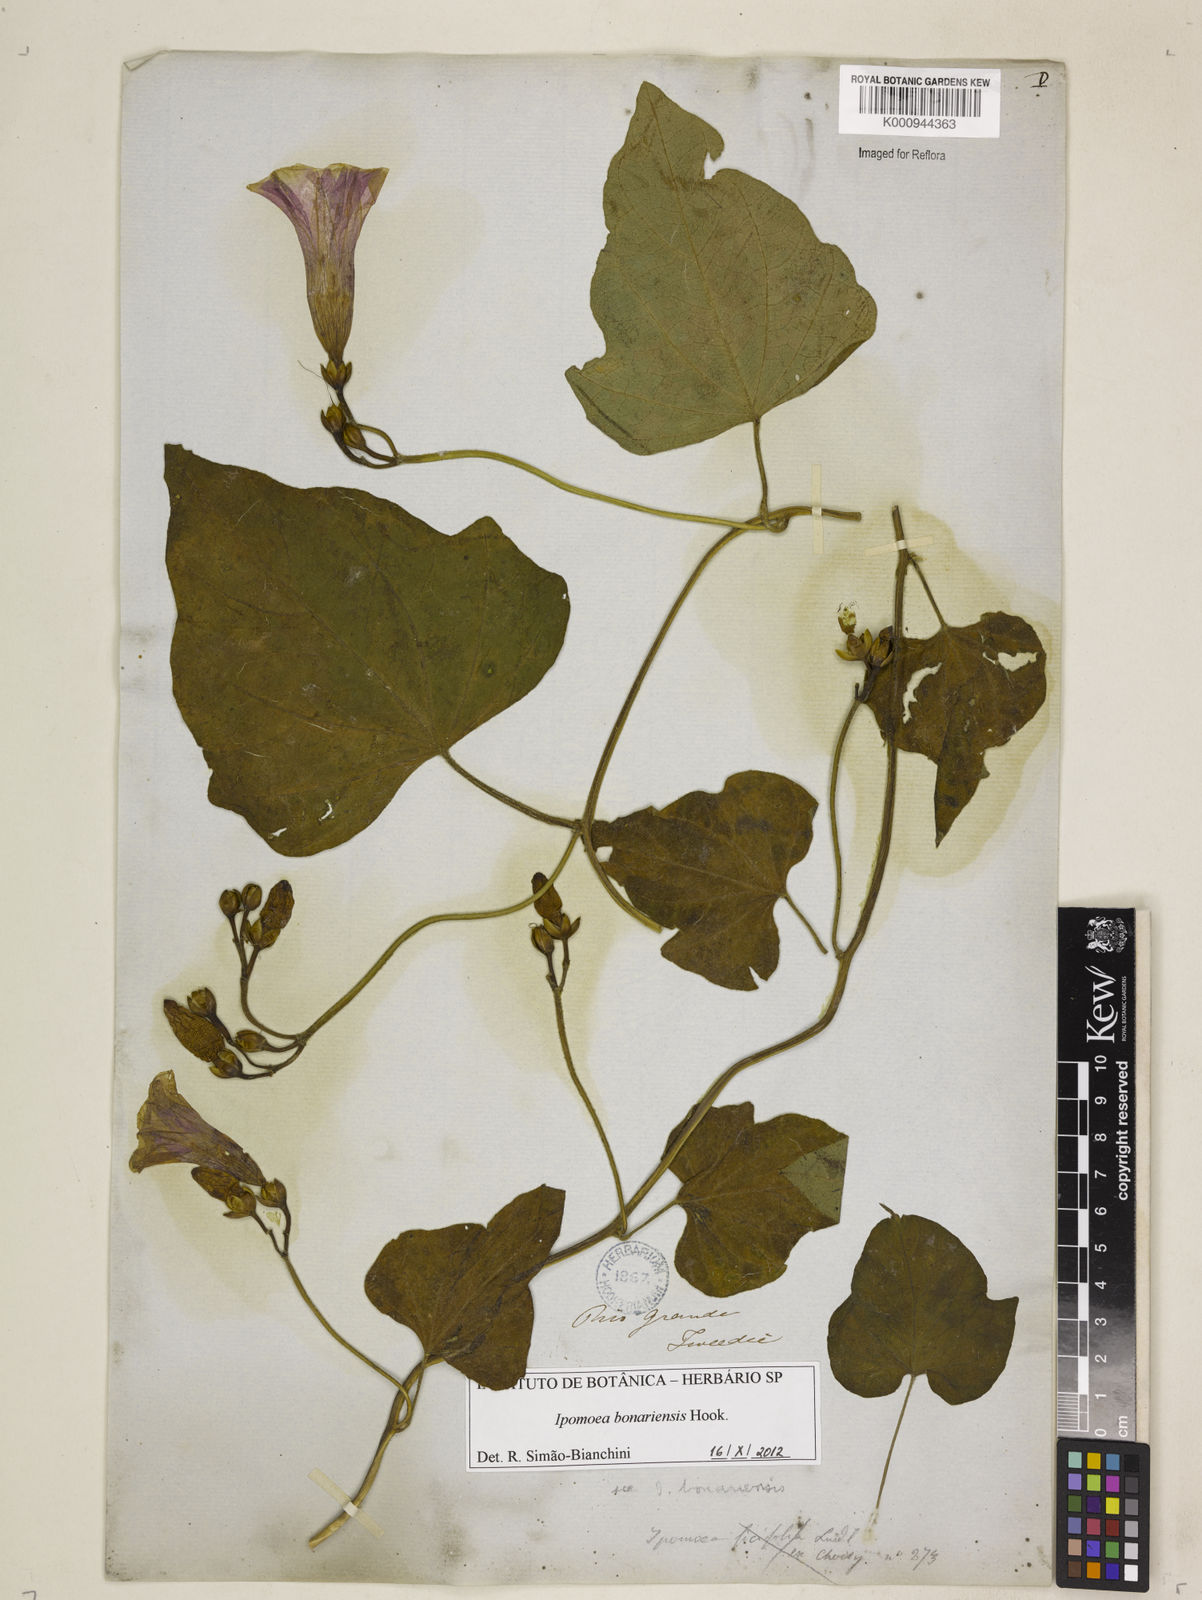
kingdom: Plantae
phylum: Tracheophyta
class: Magnoliopsida
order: Solanales
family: Convolvulaceae
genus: Ipomoea
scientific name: Ipomoea bonariensis
